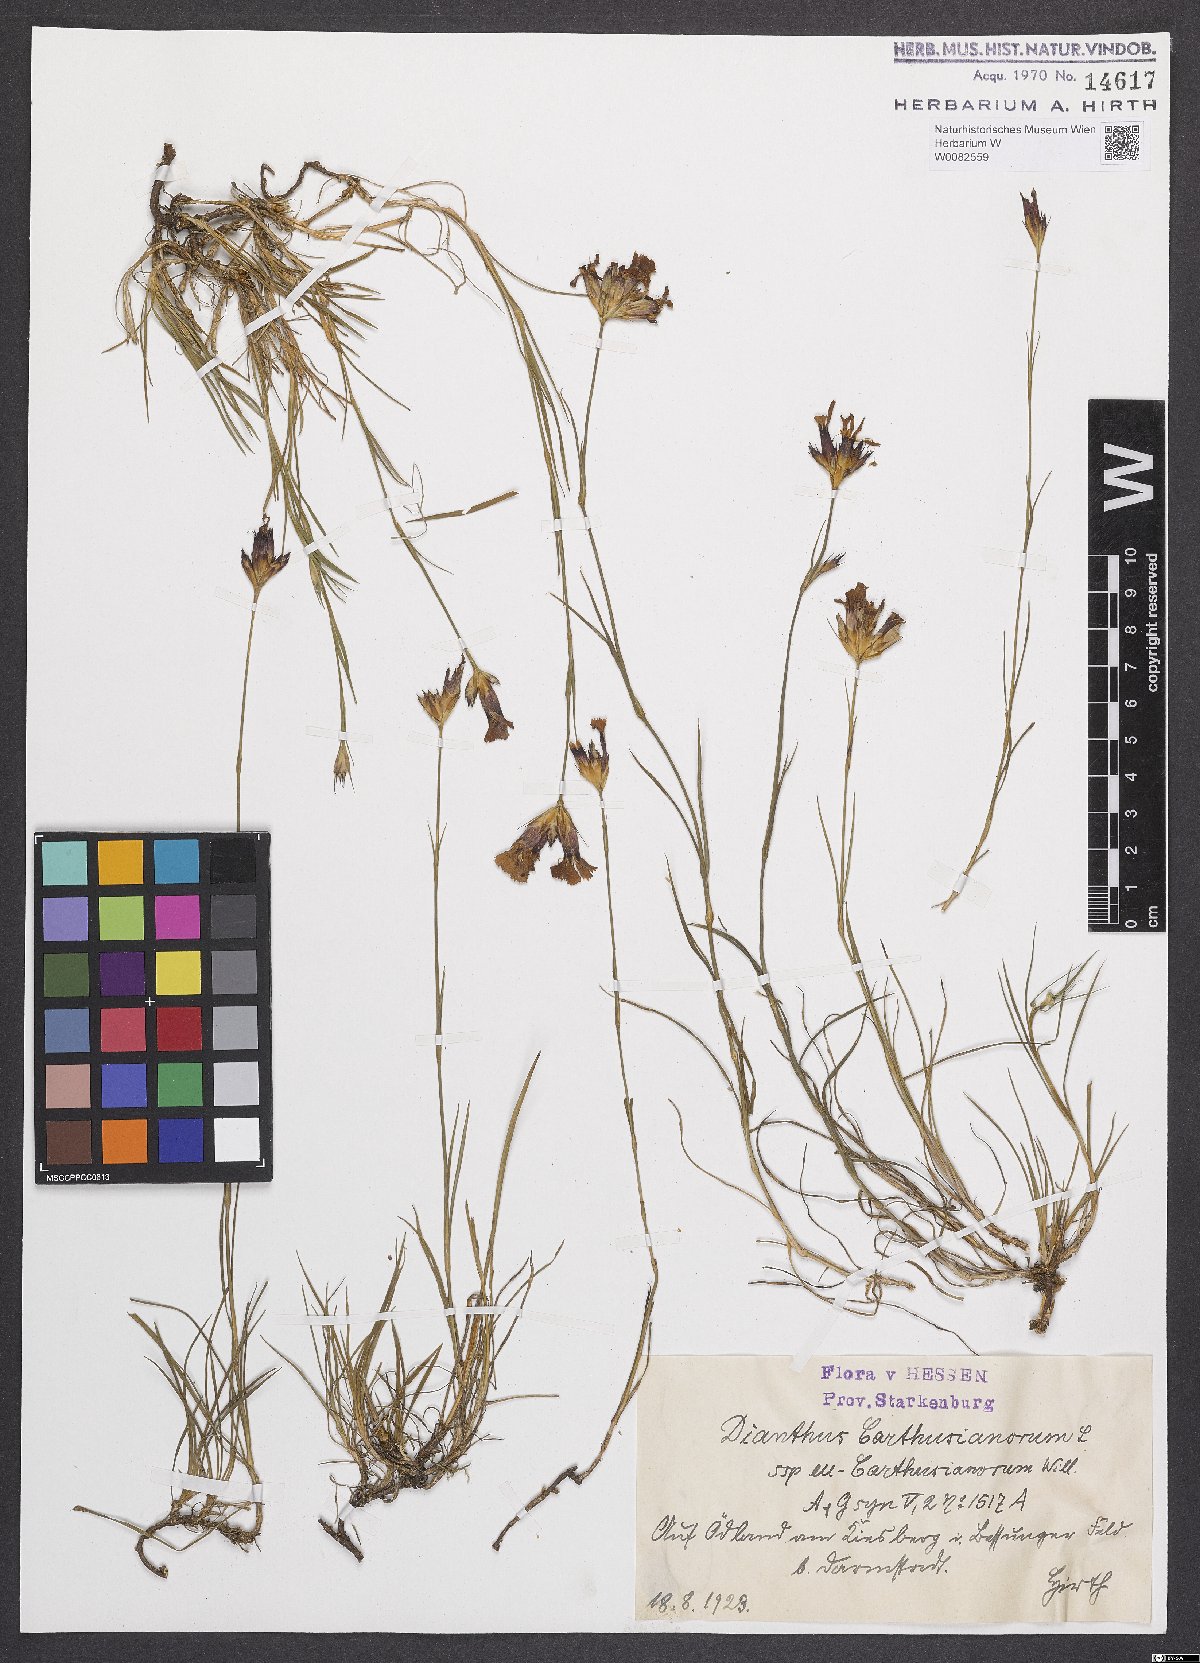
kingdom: Plantae
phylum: Tracheophyta
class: Magnoliopsida
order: Caryophyllales
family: Caryophyllaceae
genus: Dianthus
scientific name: Dianthus carthusianorum
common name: Carthusian pink
